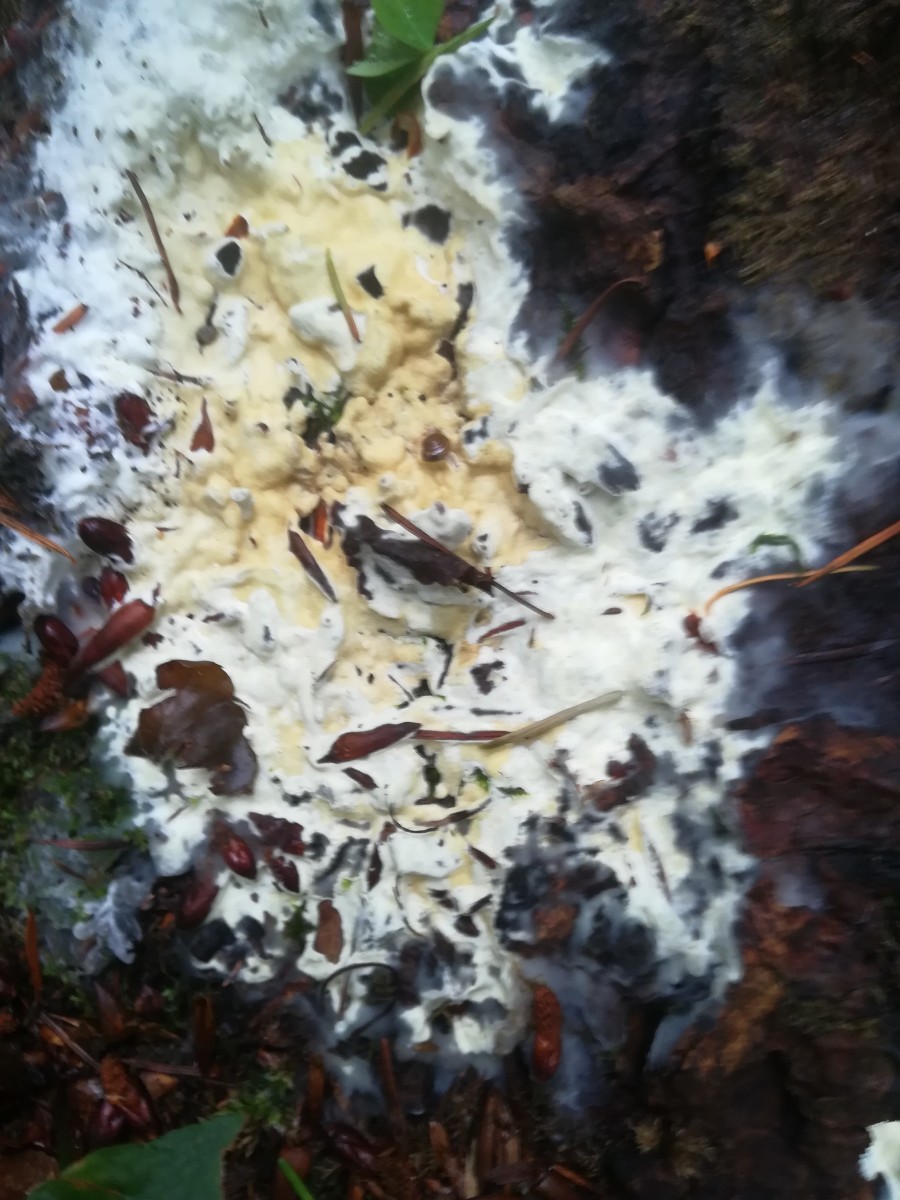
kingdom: Fungi
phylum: Ascomycota
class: Sordariomycetes
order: Hypocreales
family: Hypocreaceae
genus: Trichoderma
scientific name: Trichoderma citrinum
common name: udbredt kødkerne
